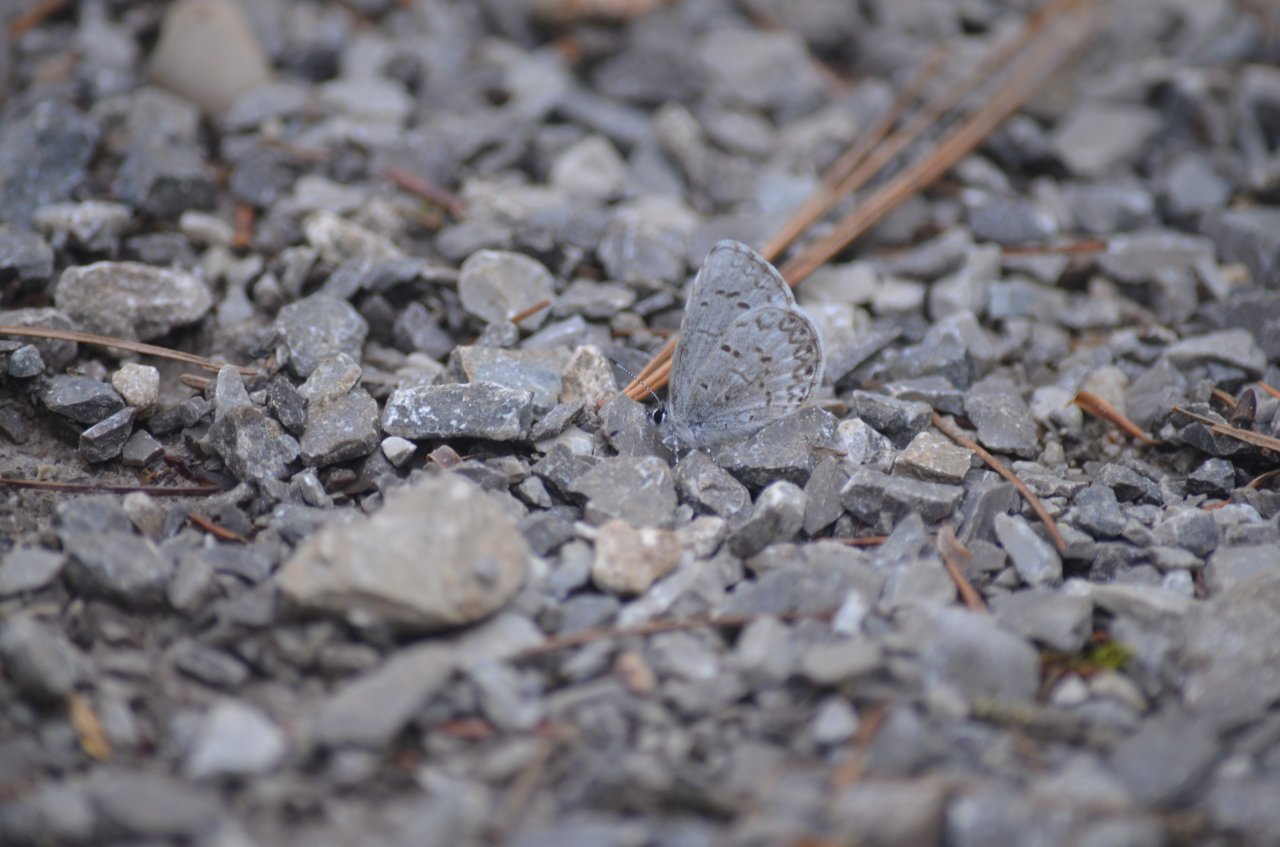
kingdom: Animalia
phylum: Arthropoda
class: Insecta
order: Lepidoptera
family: Lycaenidae
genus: Celastrina
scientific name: Celastrina
